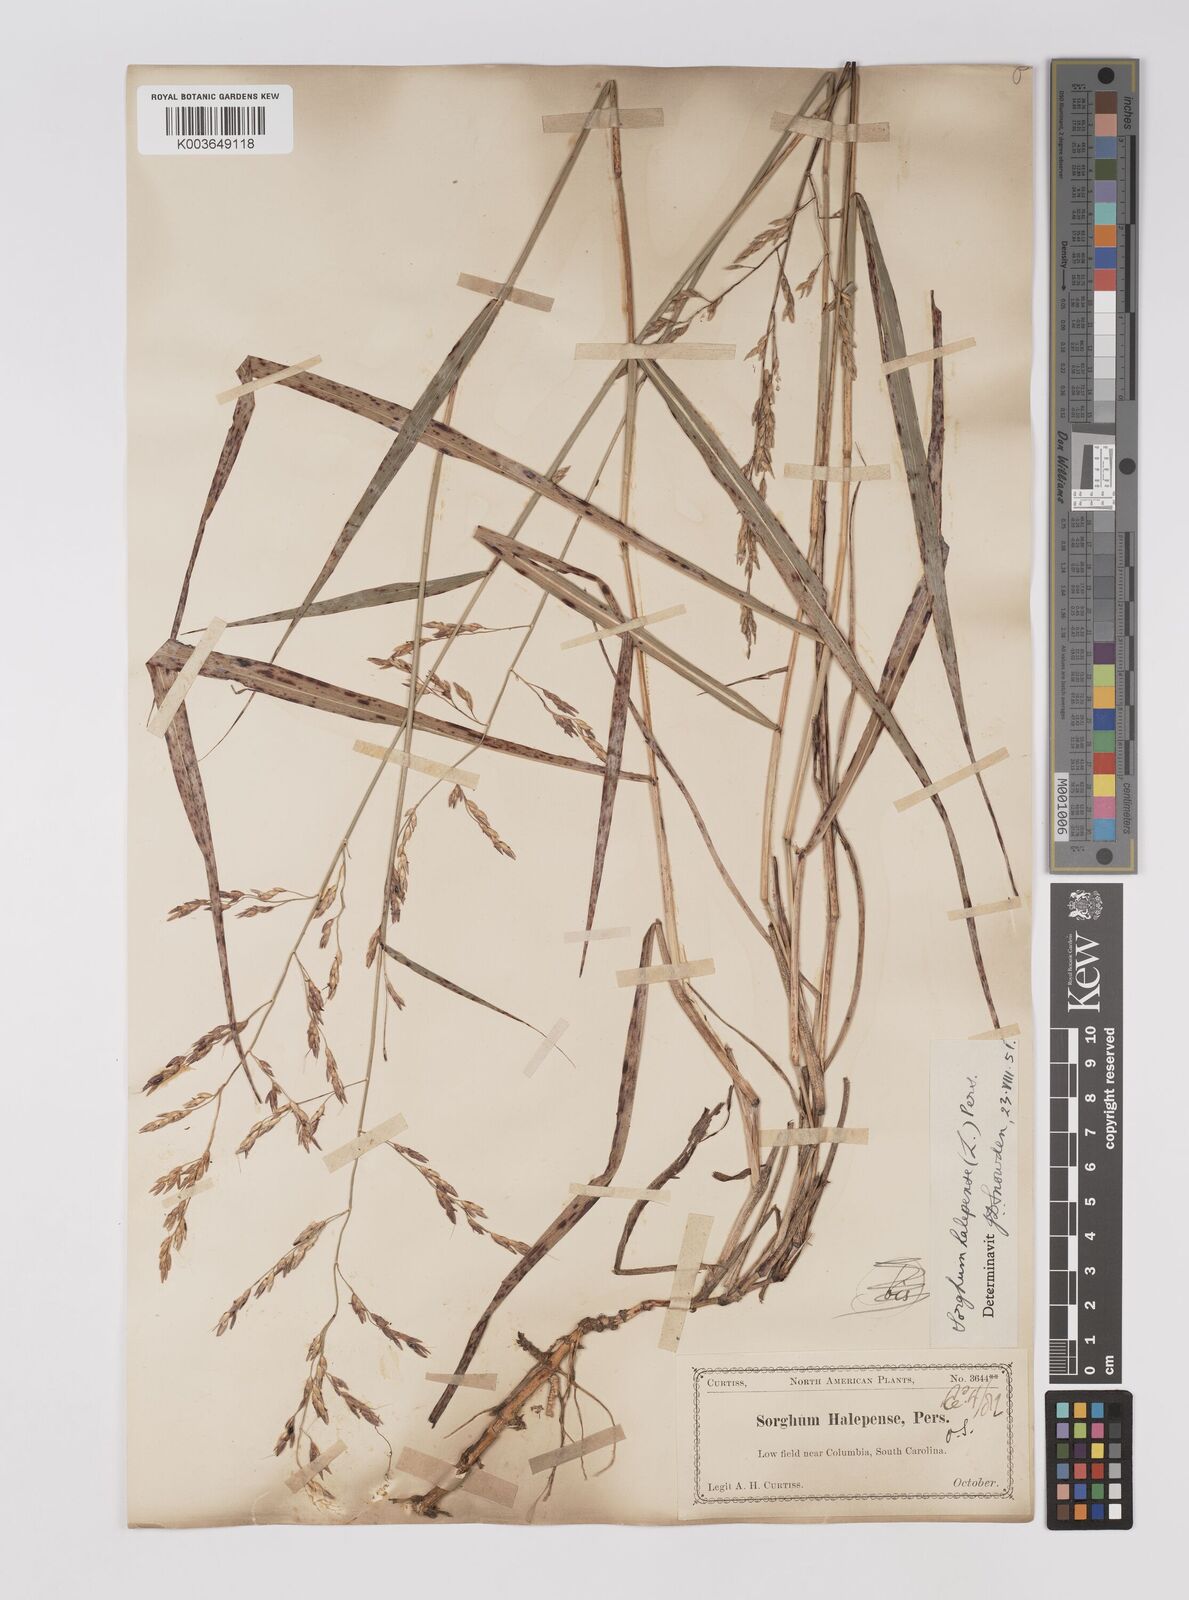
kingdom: Plantae
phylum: Tracheophyta
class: Liliopsida
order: Poales
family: Poaceae
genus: Sorghum
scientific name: Sorghum halepense
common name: Johnson-grass
